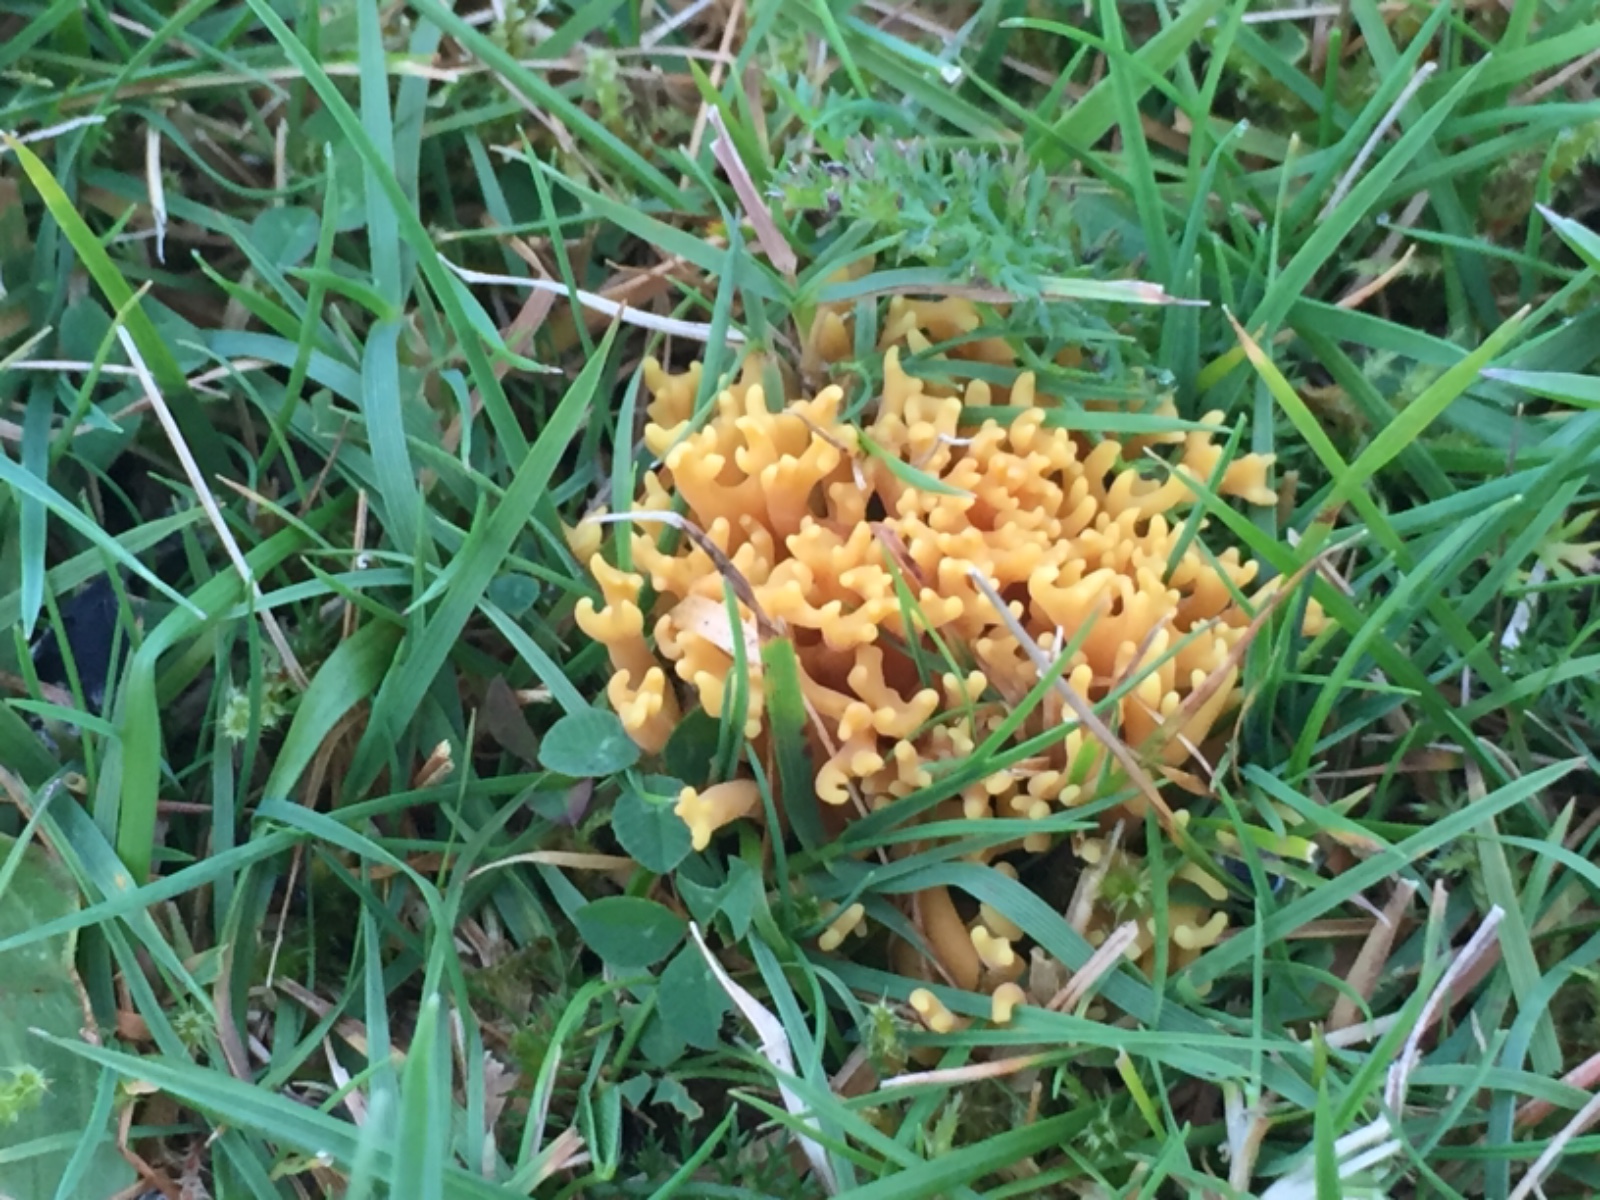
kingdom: Fungi
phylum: Basidiomycota
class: Agaricomycetes
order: Agaricales
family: Clavariaceae
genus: Clavulinopsis
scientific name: Clavulinopsis corniculata
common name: eng-køllesvamp
